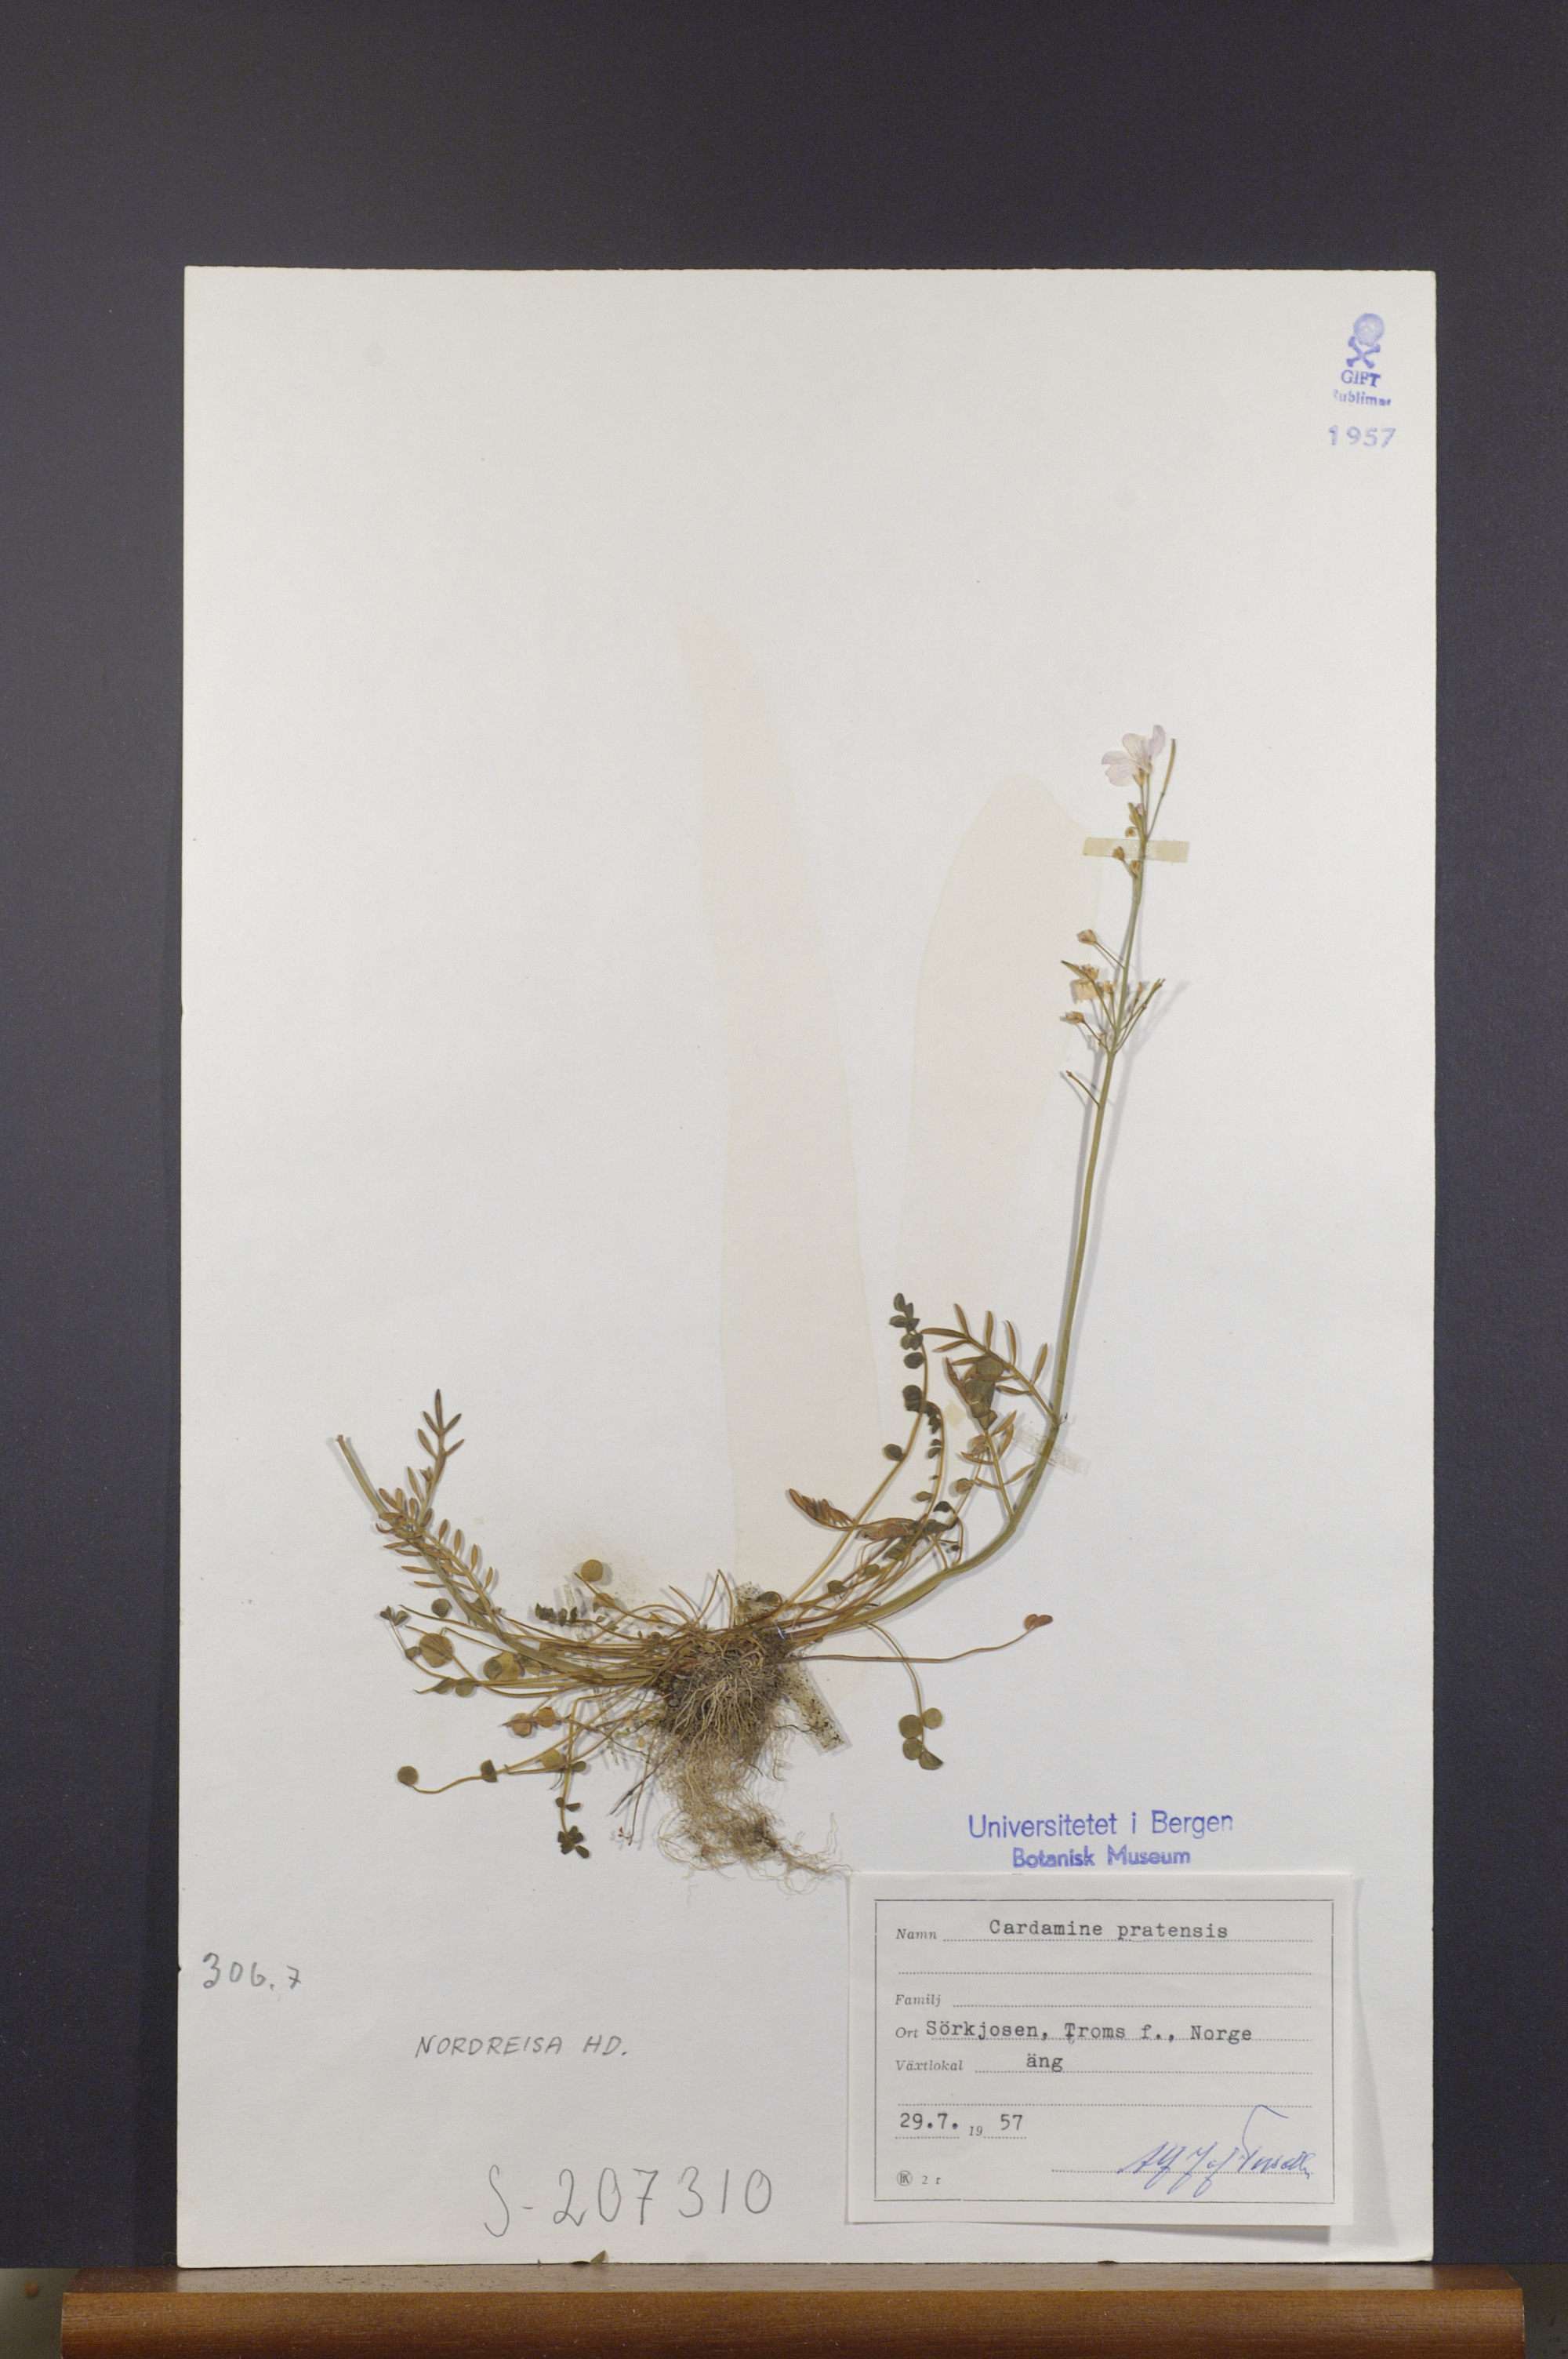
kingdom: Plantae
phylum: Tracheophyta
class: Magnoliopsida
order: Brassicales
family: Brassicaceae
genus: Cardamine
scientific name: Cardamine pratensis
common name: Cuckoo flower
